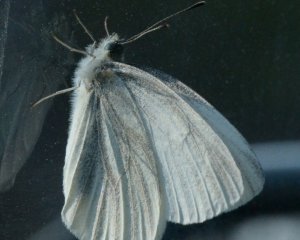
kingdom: Animalia
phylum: Arthropoda
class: Insecta
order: Lepidoptera
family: Pieridae
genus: Pieris
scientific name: Pieris virginiensis
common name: West Virginia White
